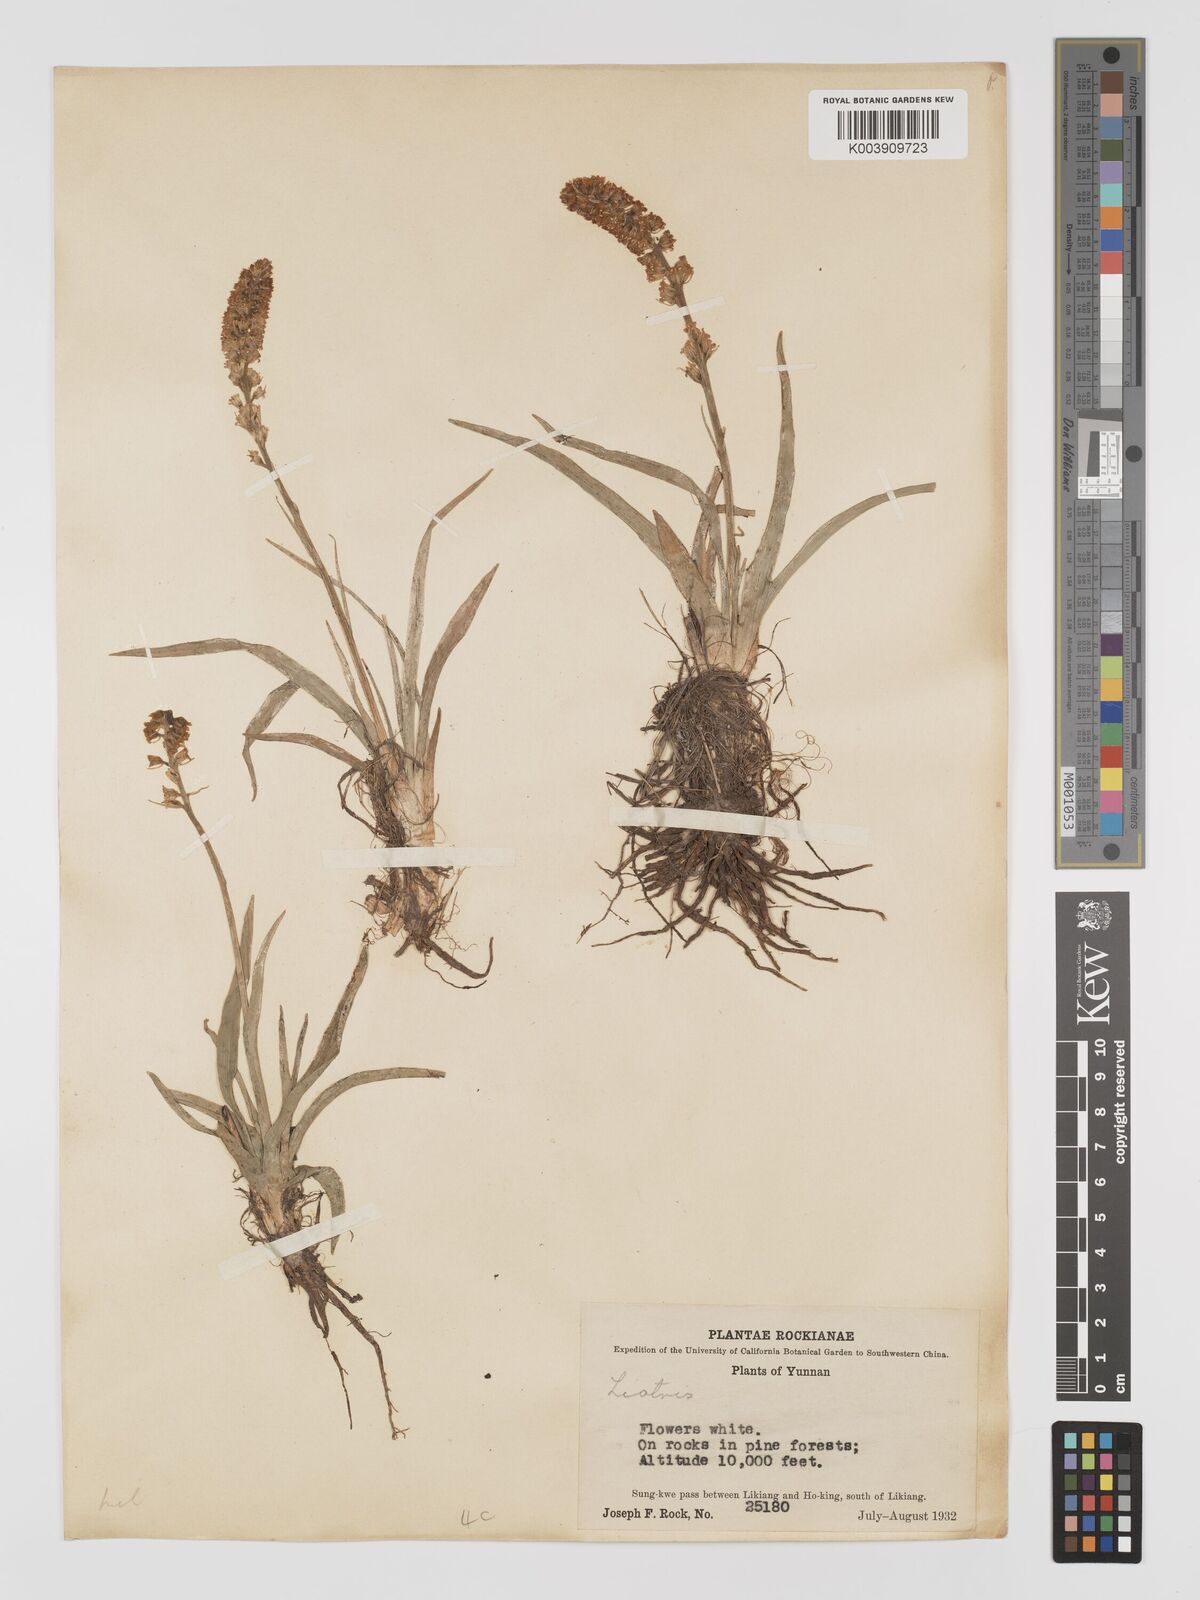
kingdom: Plantae
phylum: Tracheophyta
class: Liliopsida
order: Dioscoreales
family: Nartheciaceae
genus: Aletris
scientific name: Aletris pauciflora
